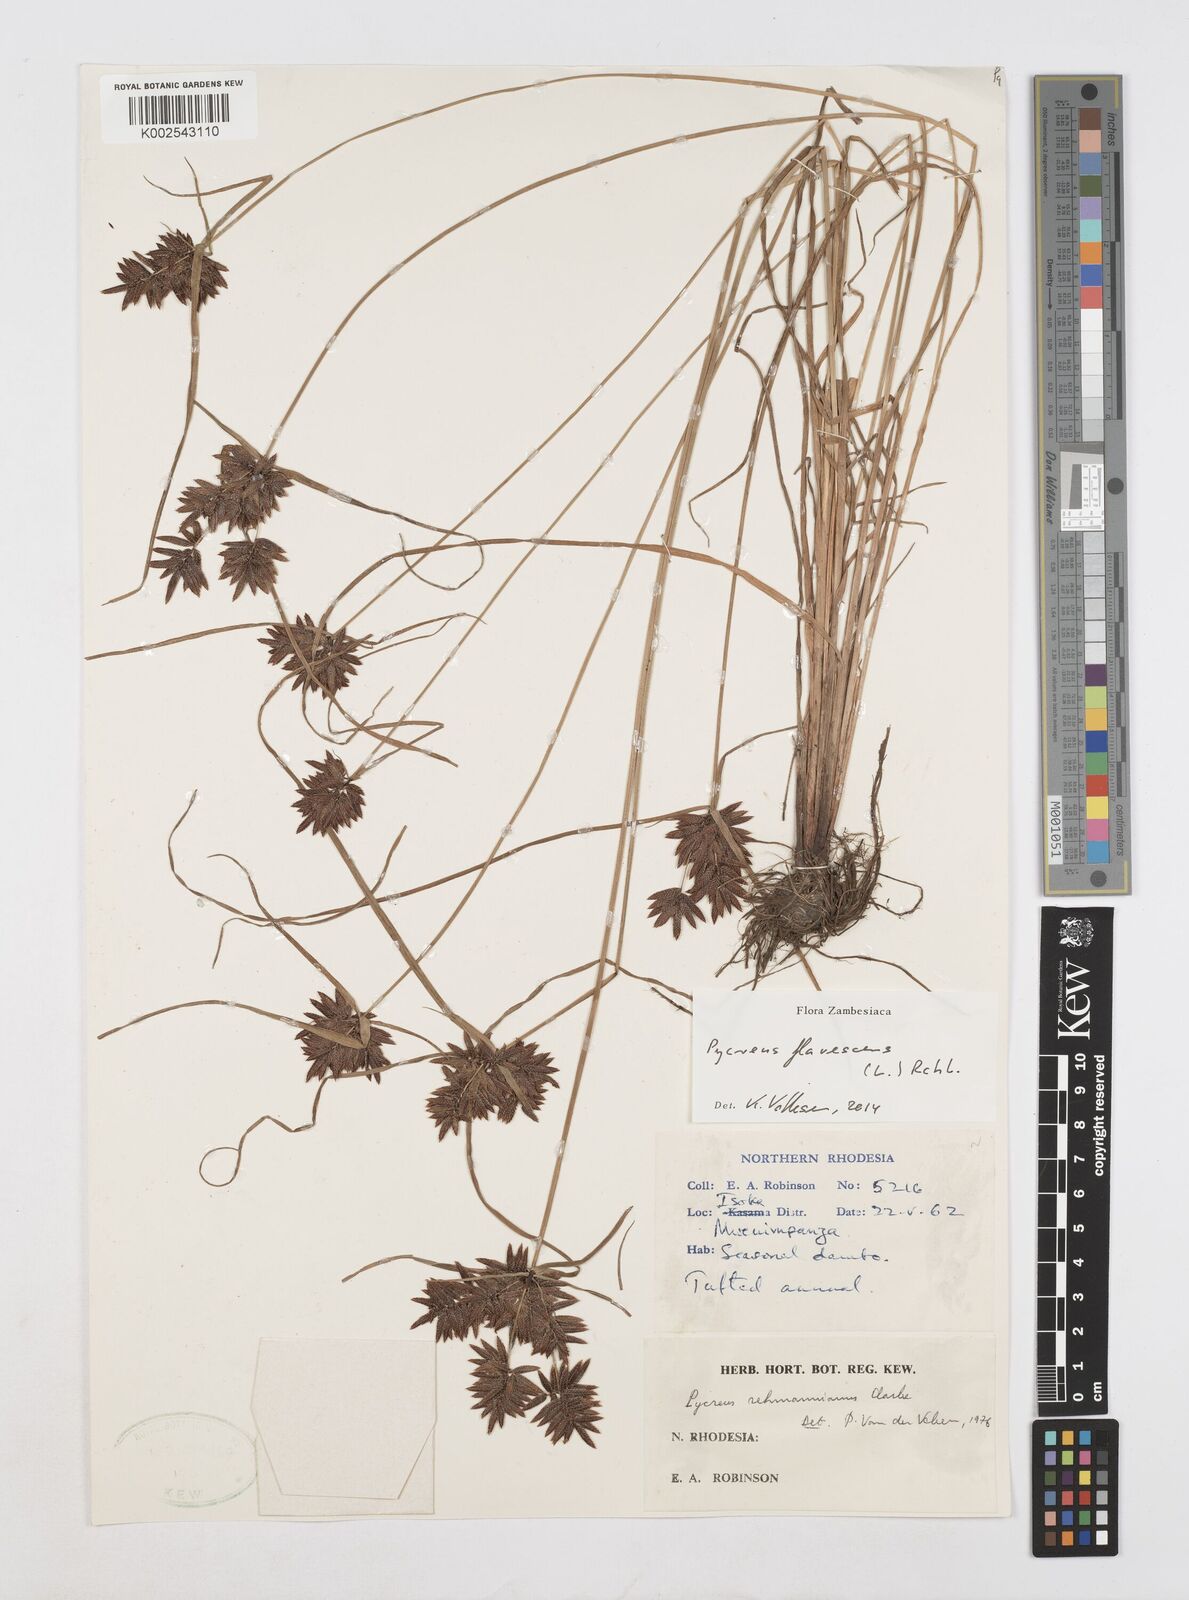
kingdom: Plantae
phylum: Tracheophyta
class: Liliopsida
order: Poales
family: Cyperaceae
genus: Cyperus
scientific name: Cyperus flavescens
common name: Yellow galingale
